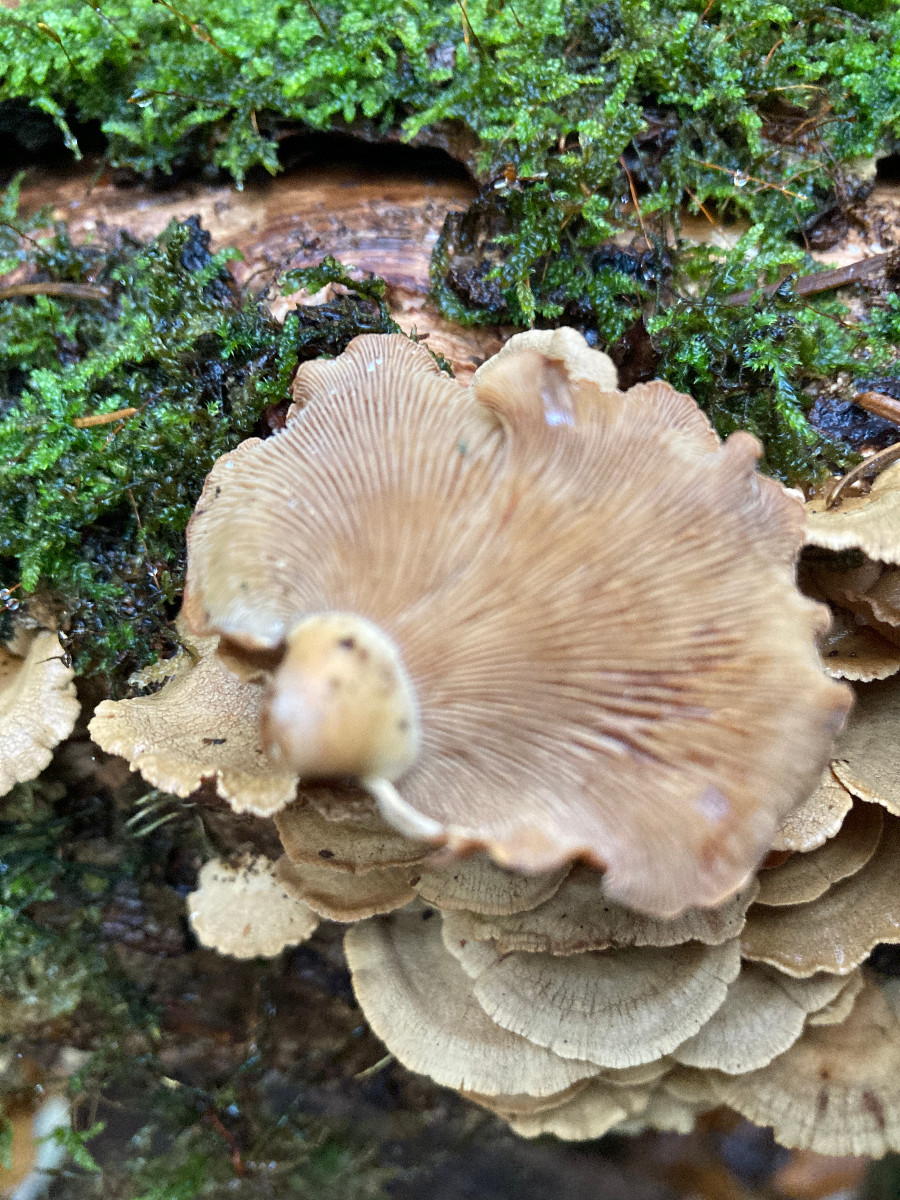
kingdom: Fungi
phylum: Basidiomycota
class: Agaricomycetes
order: Agaricales
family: Mycenaceae
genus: Panellus
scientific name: Panellus stipticus
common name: kliddet epaulethat
